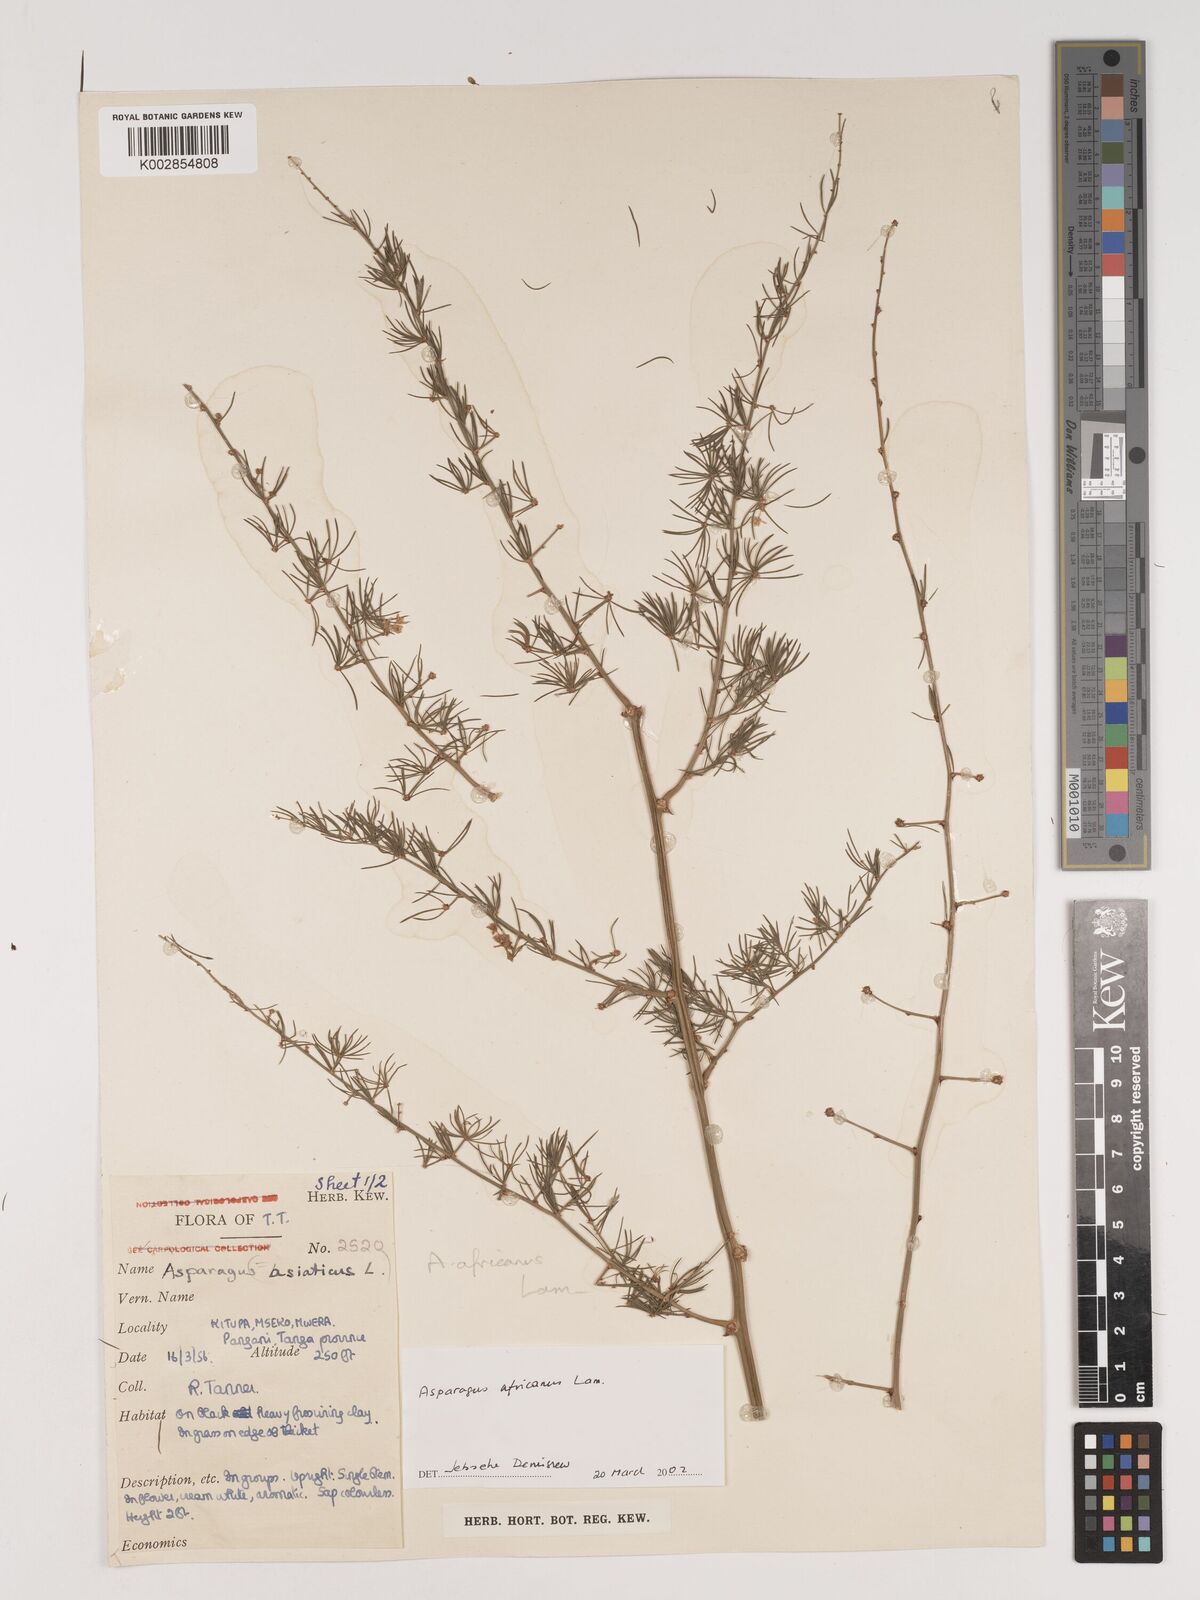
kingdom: Plantae
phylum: Tracheophyta
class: Liliopsida
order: Asparagales
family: Asparagaceae
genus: Asparagus
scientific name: Asparagus africanus
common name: Asparagus-fern
